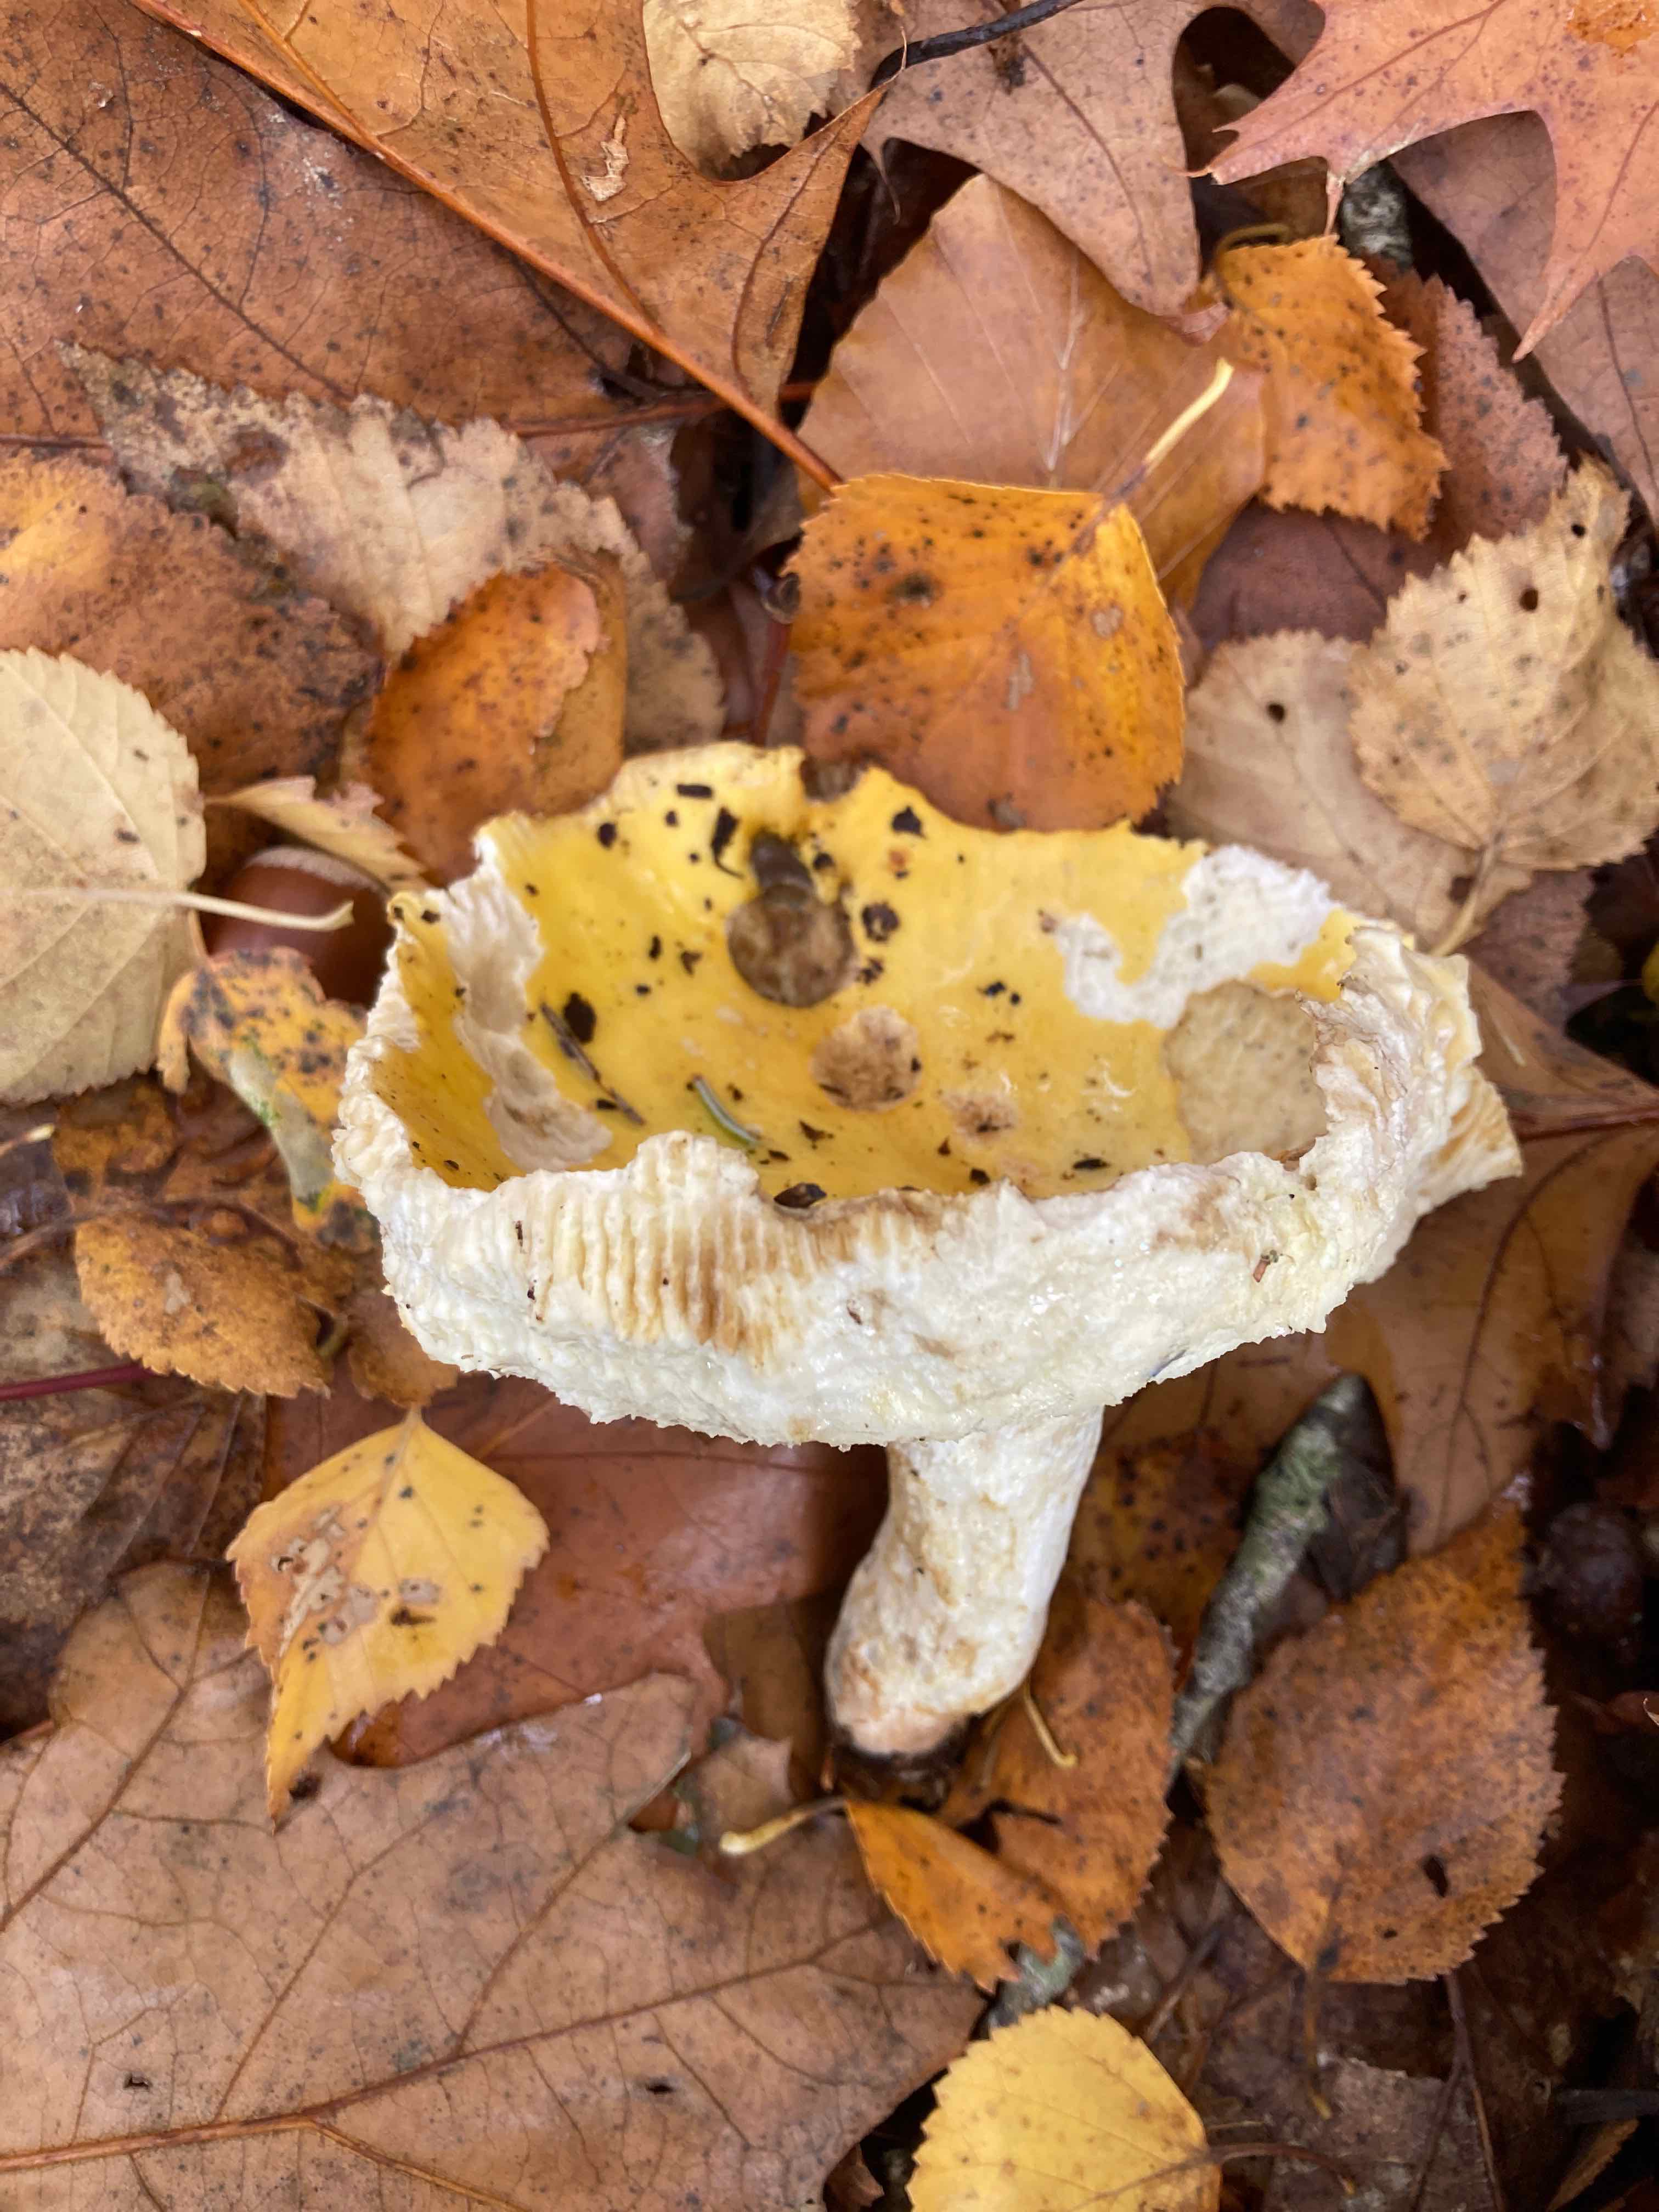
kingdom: Fungi
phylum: Basidiomycota
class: Agaricomycetes
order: Russulales
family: Russulaceae
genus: Russula
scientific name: Russula claroflava
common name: birke-skørhat
